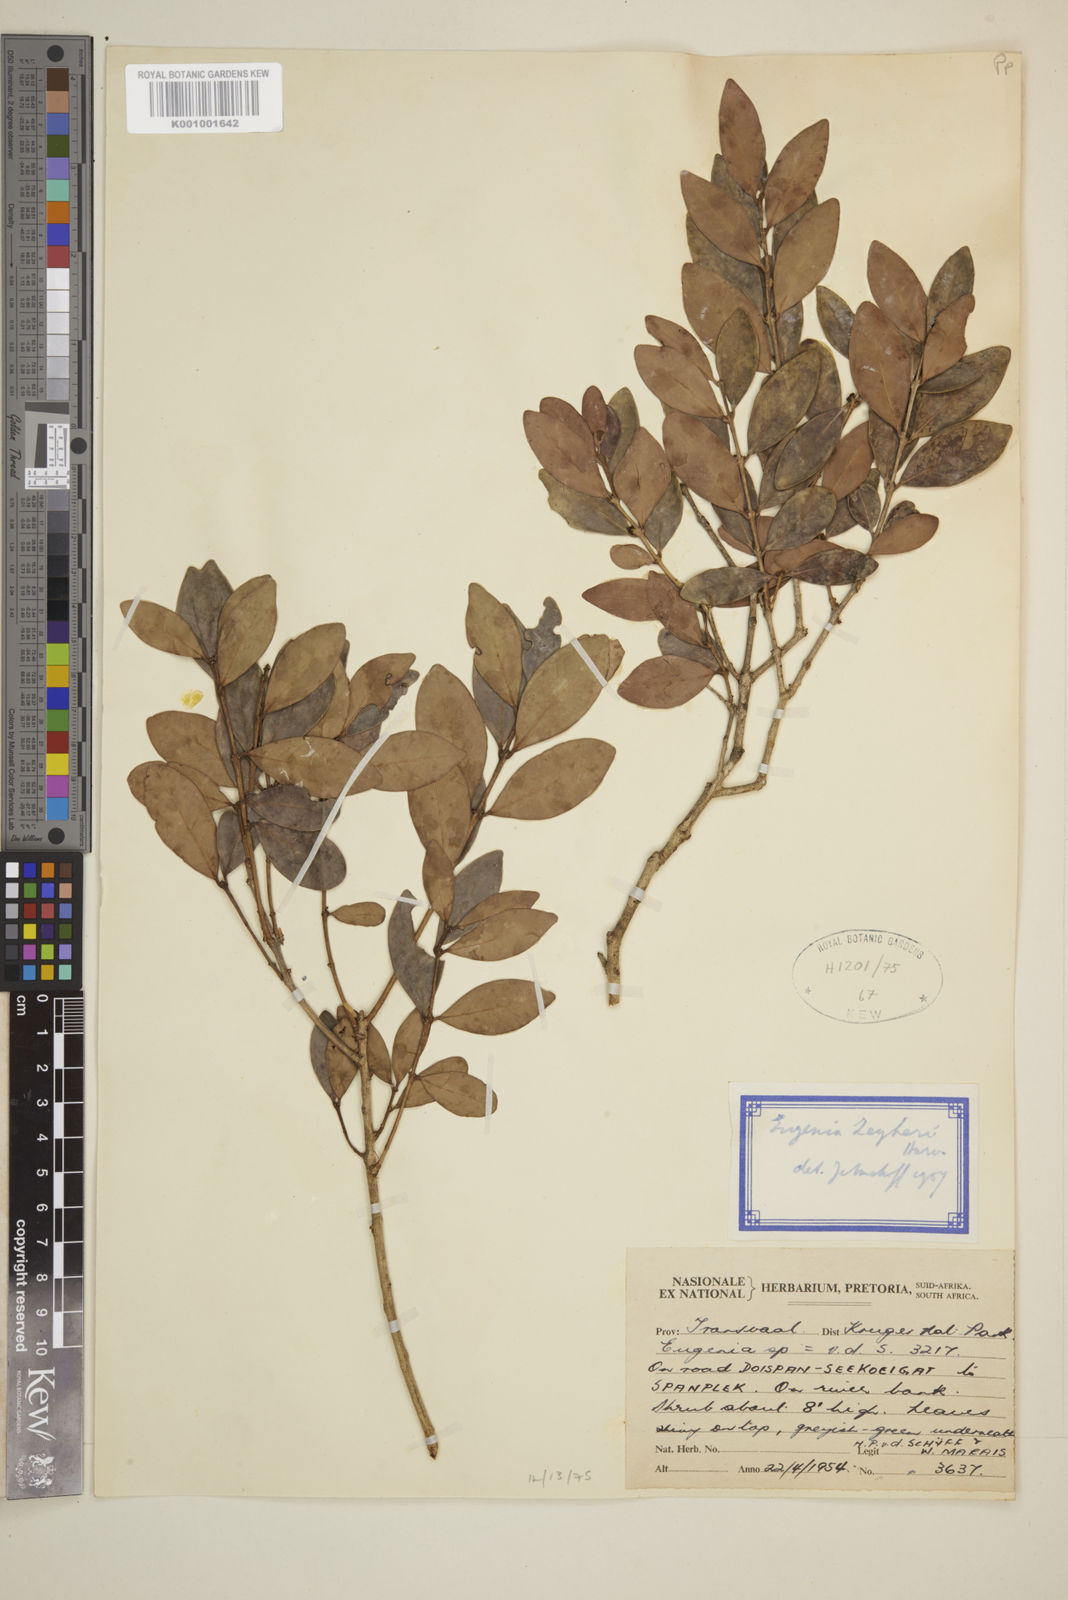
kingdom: Plantae
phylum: Tracheophyta
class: Magnoliopsida
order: Myrtales
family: Myrtaceae
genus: Eugenia
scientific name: Eugenia zeyheri
